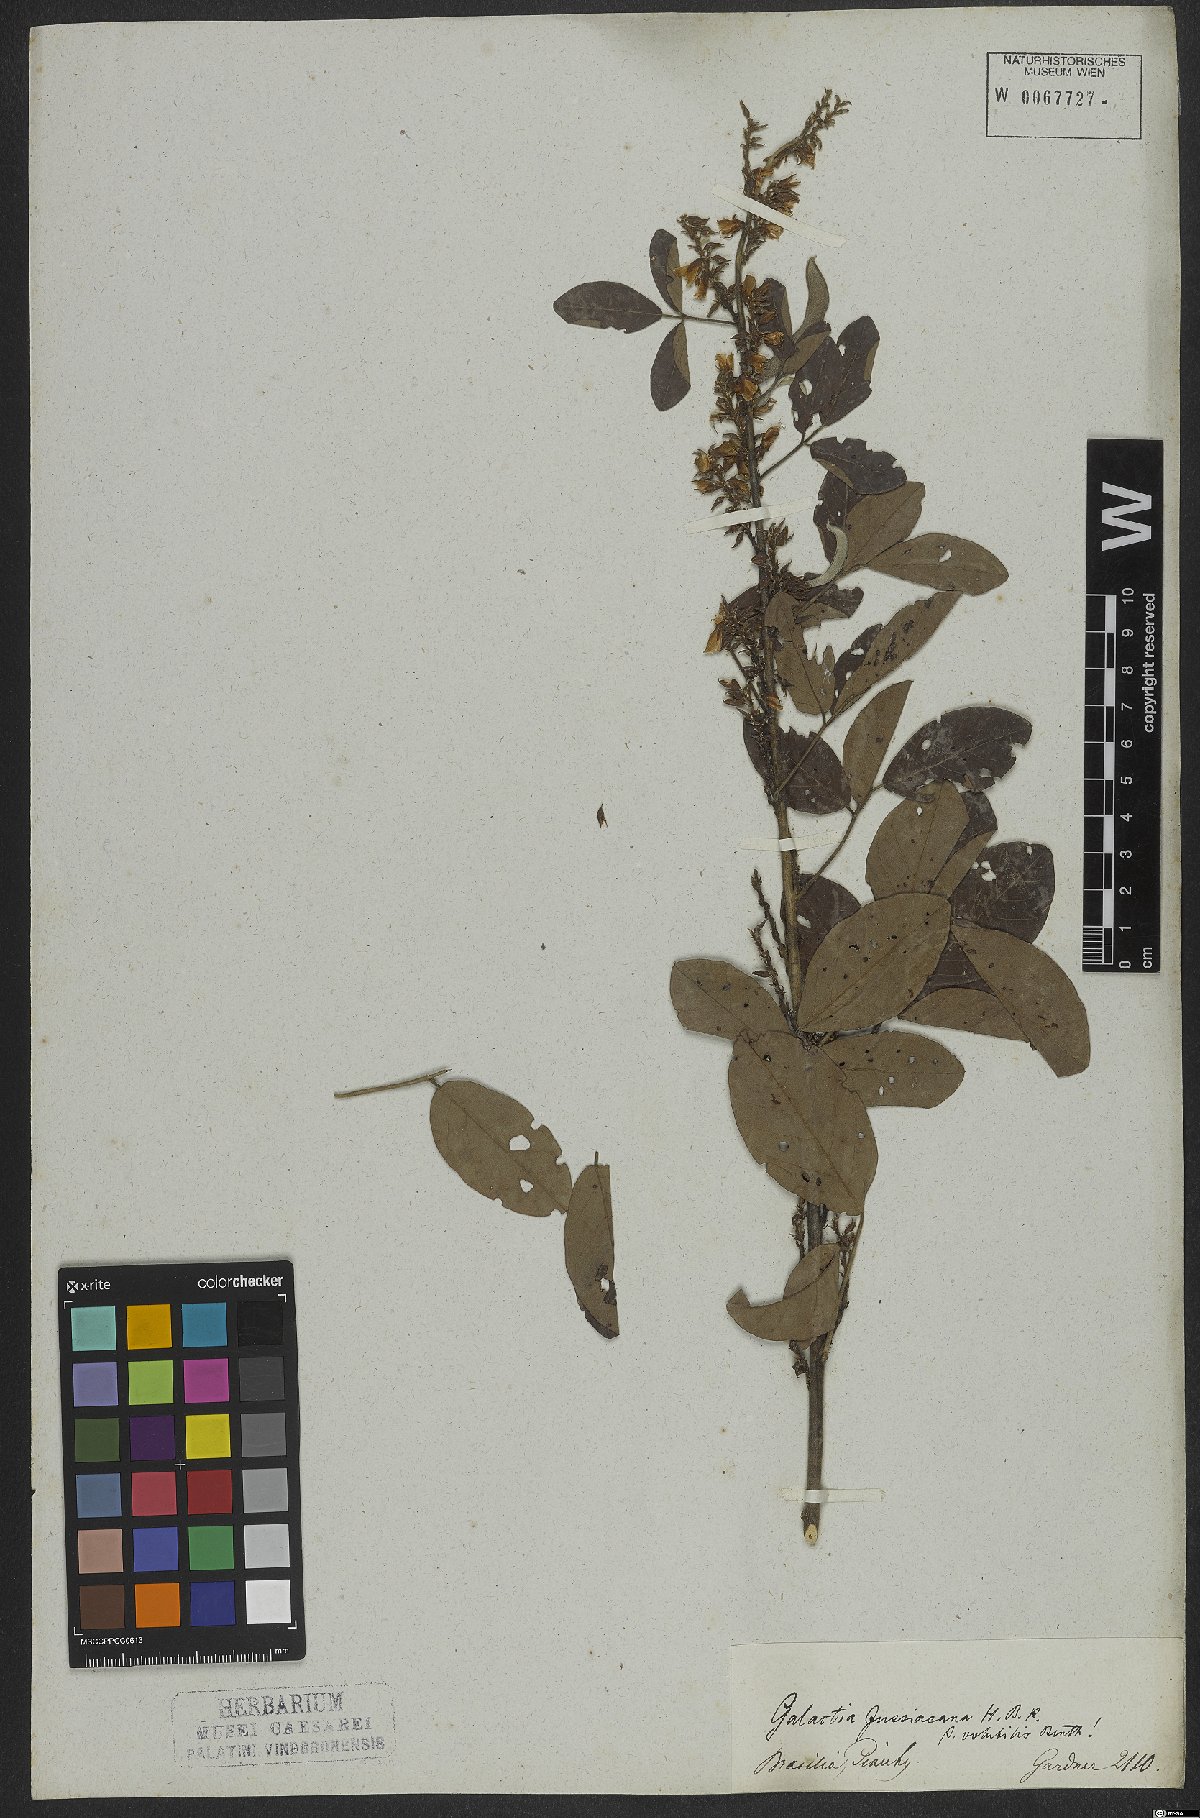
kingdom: Plantae
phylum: Tracheophyta
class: Magnoliopsida
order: Fabales
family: Fabaceae
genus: Galactia
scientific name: Galactia jussiaeana
